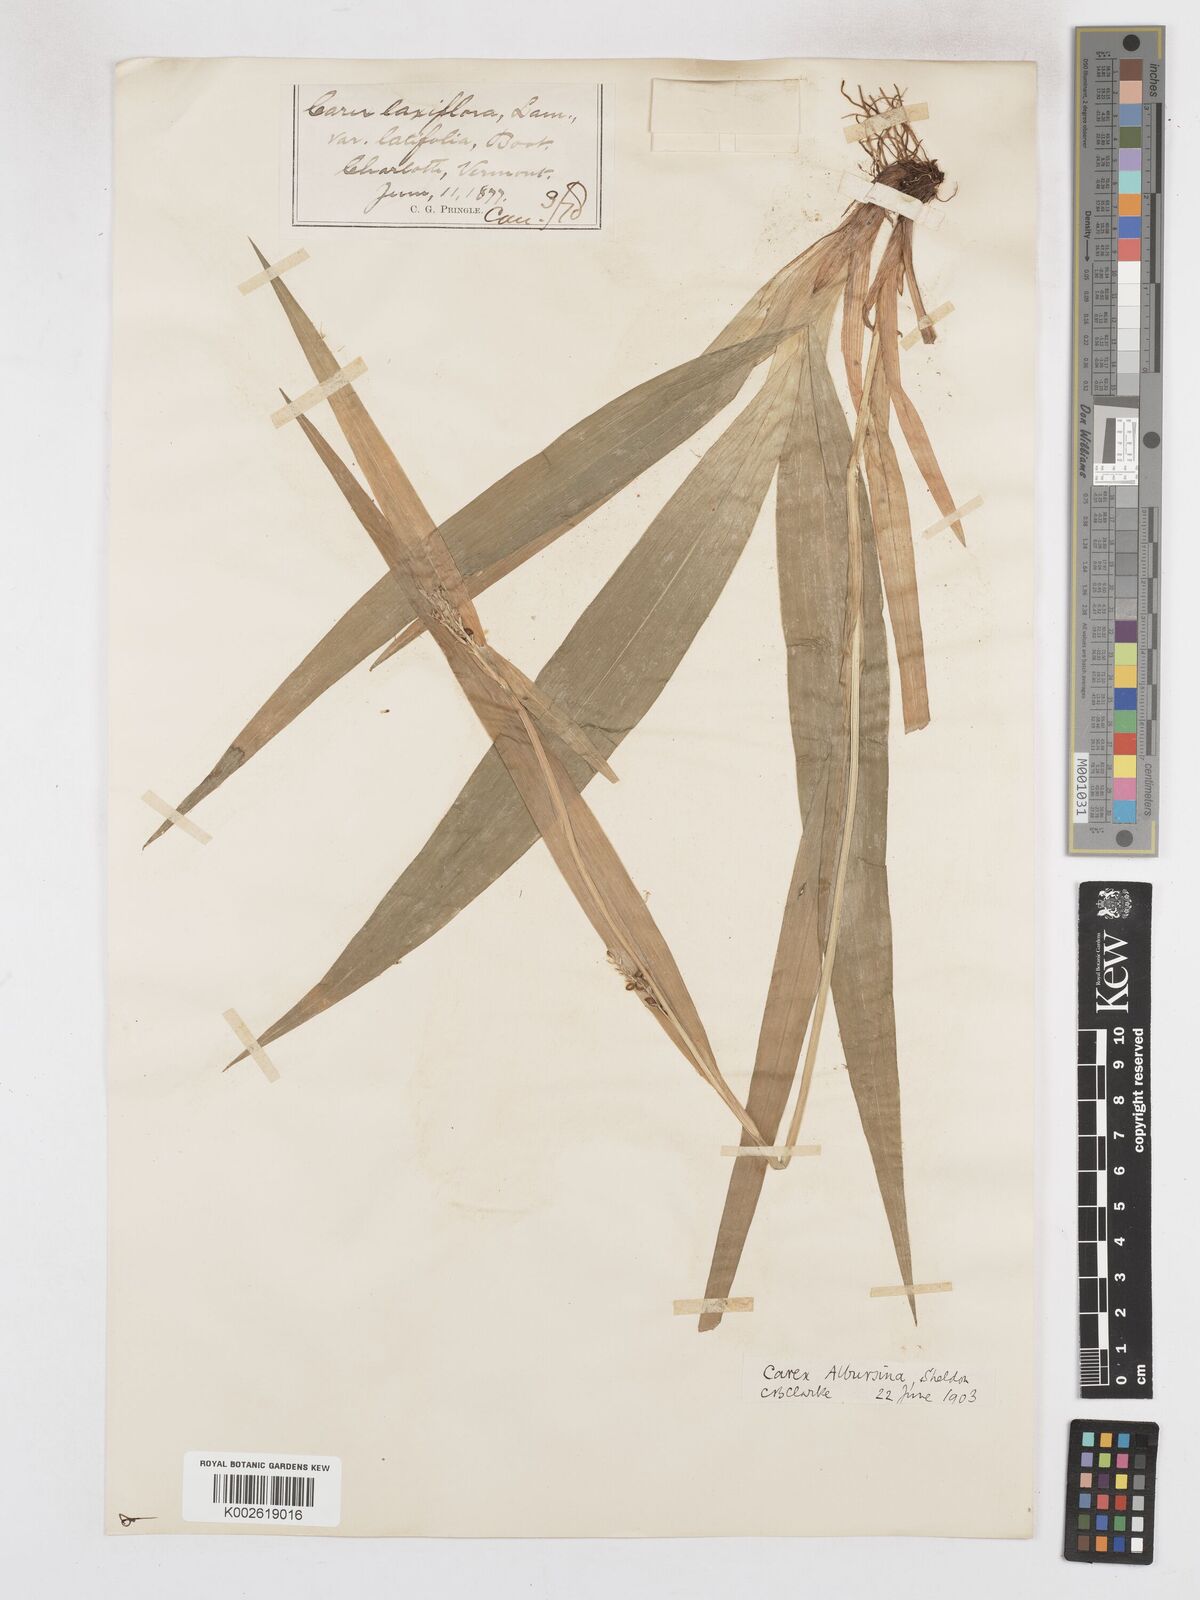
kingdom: Plantae
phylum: Tracheophyta
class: Liliopsida
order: Poales
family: Cyperaceae
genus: Carex
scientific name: Carex albursina
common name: Blunt-scale wood sedge
